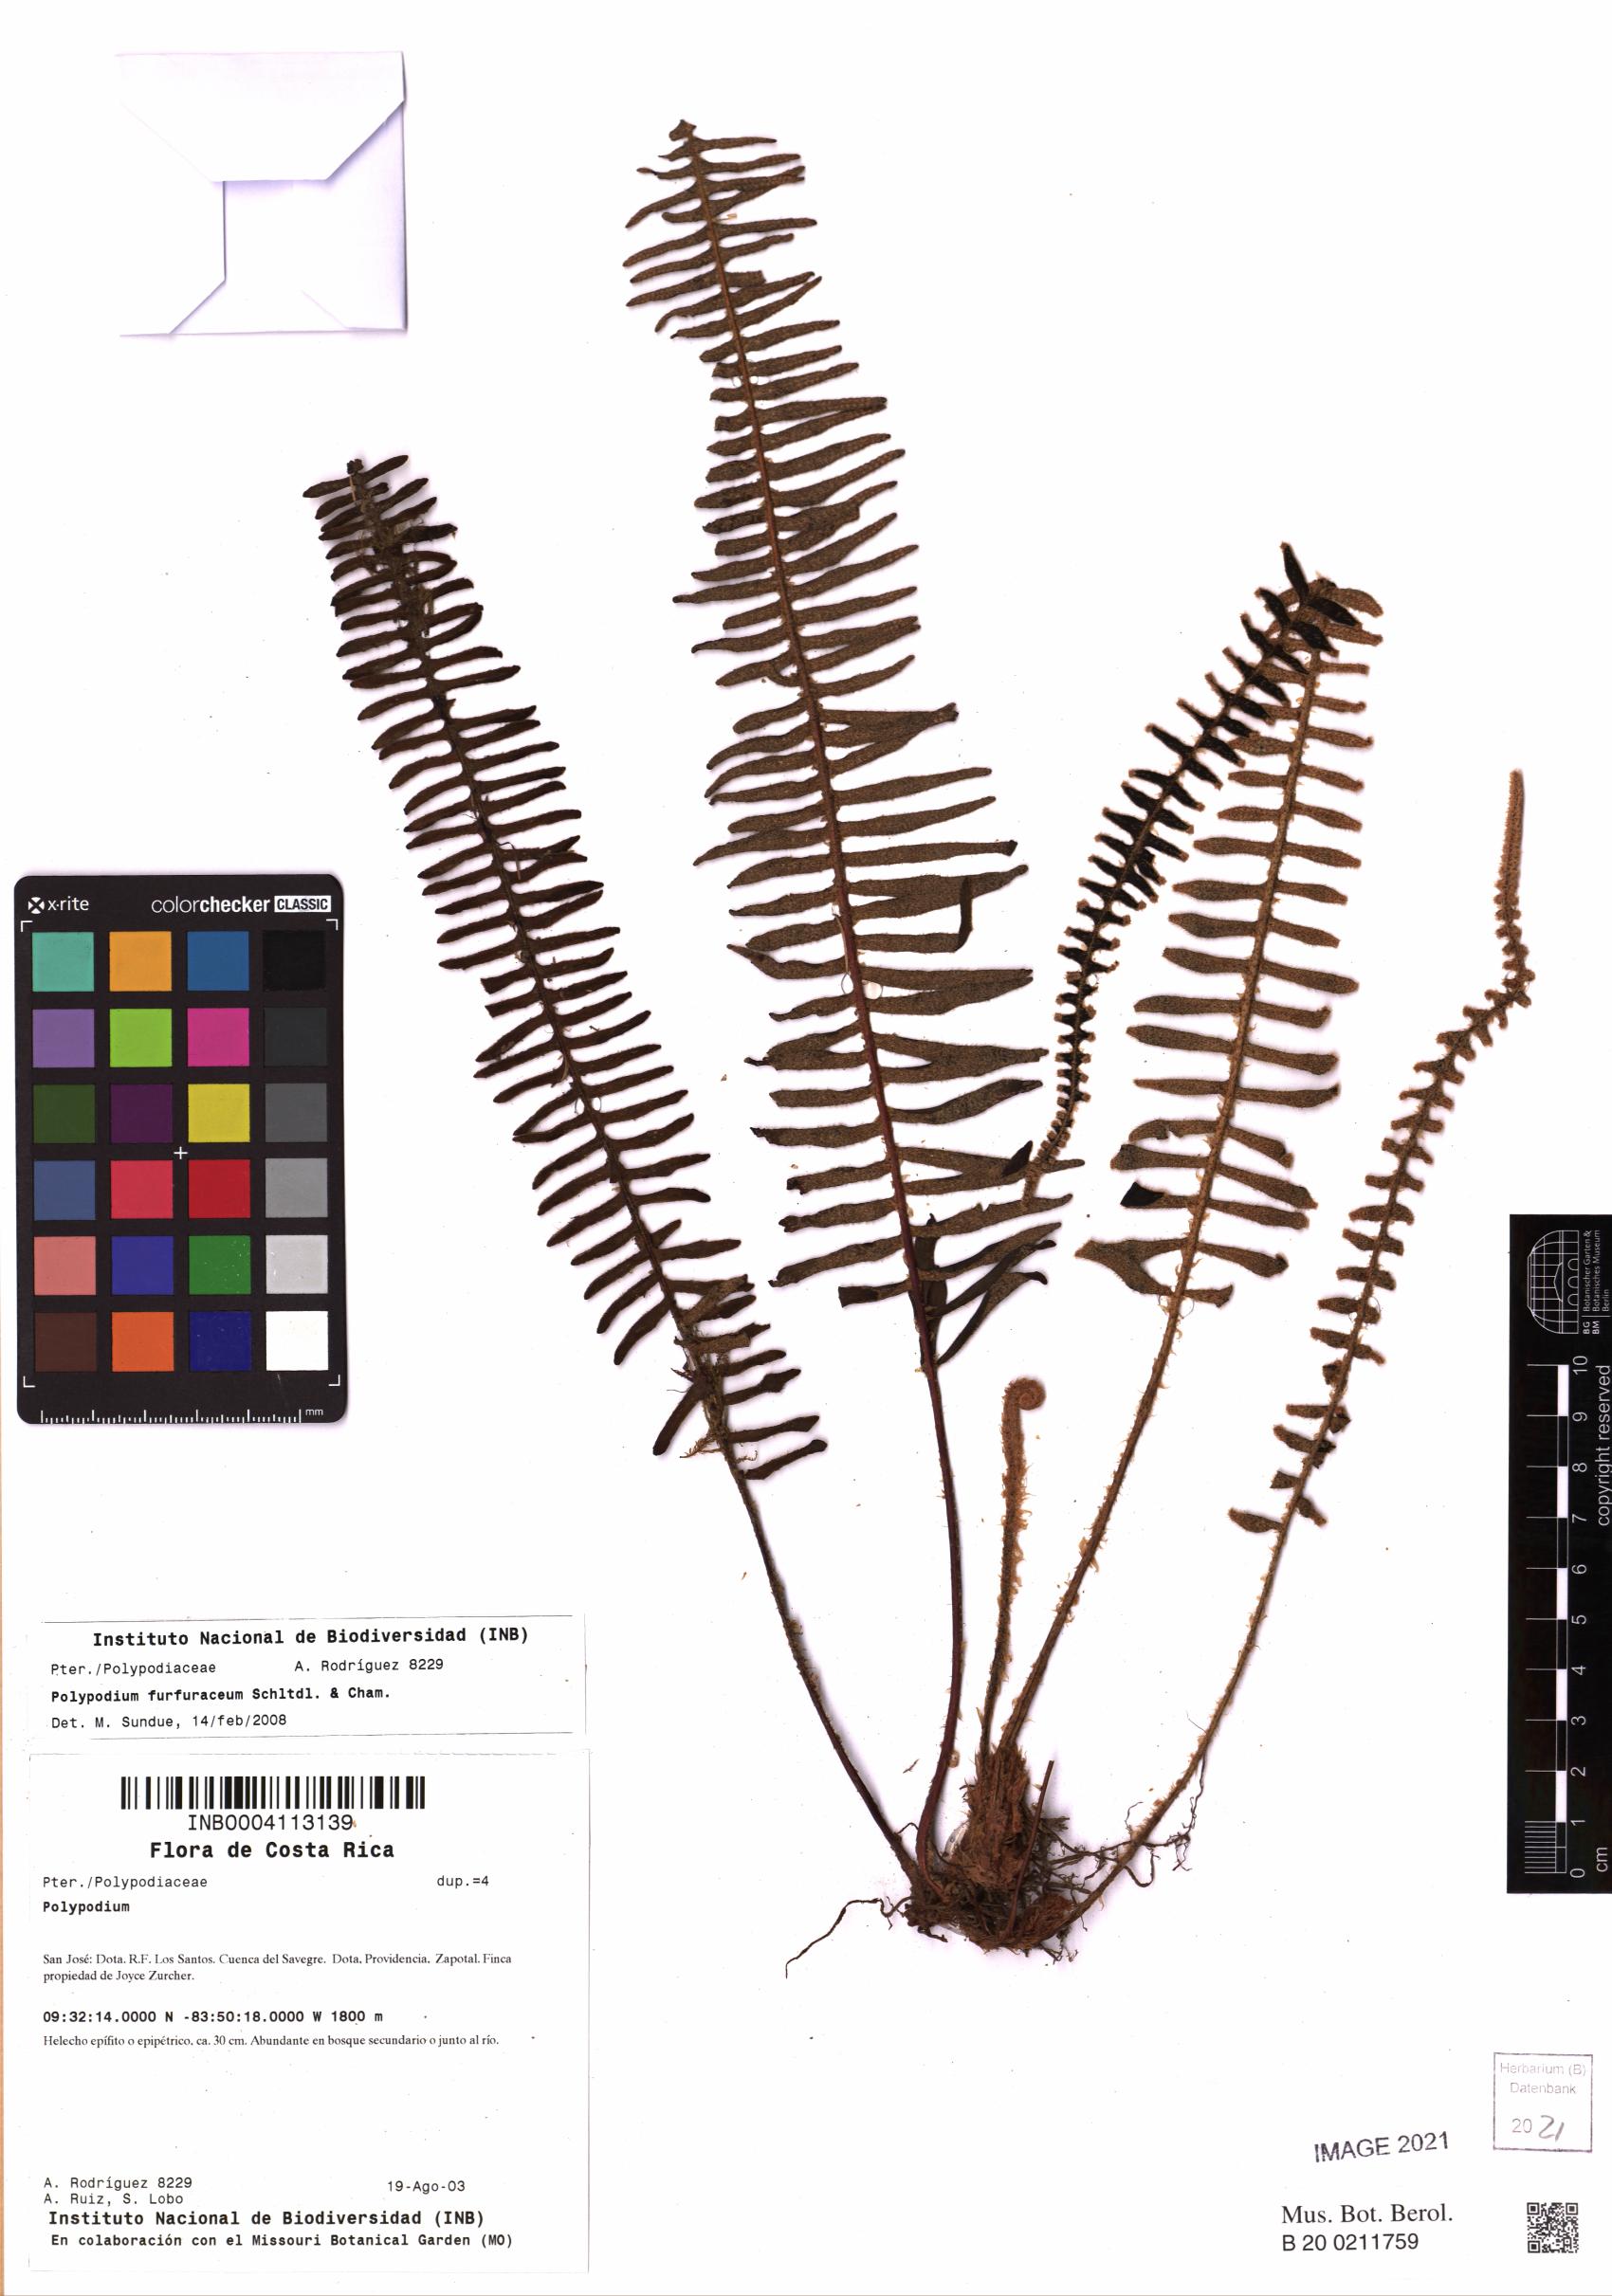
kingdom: Plantae
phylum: Tracheophyta
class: Polypodiopsida
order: Polypodiales
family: Polypodiaceae
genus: Pleopeltis
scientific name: Pleopeltis furfuracea
